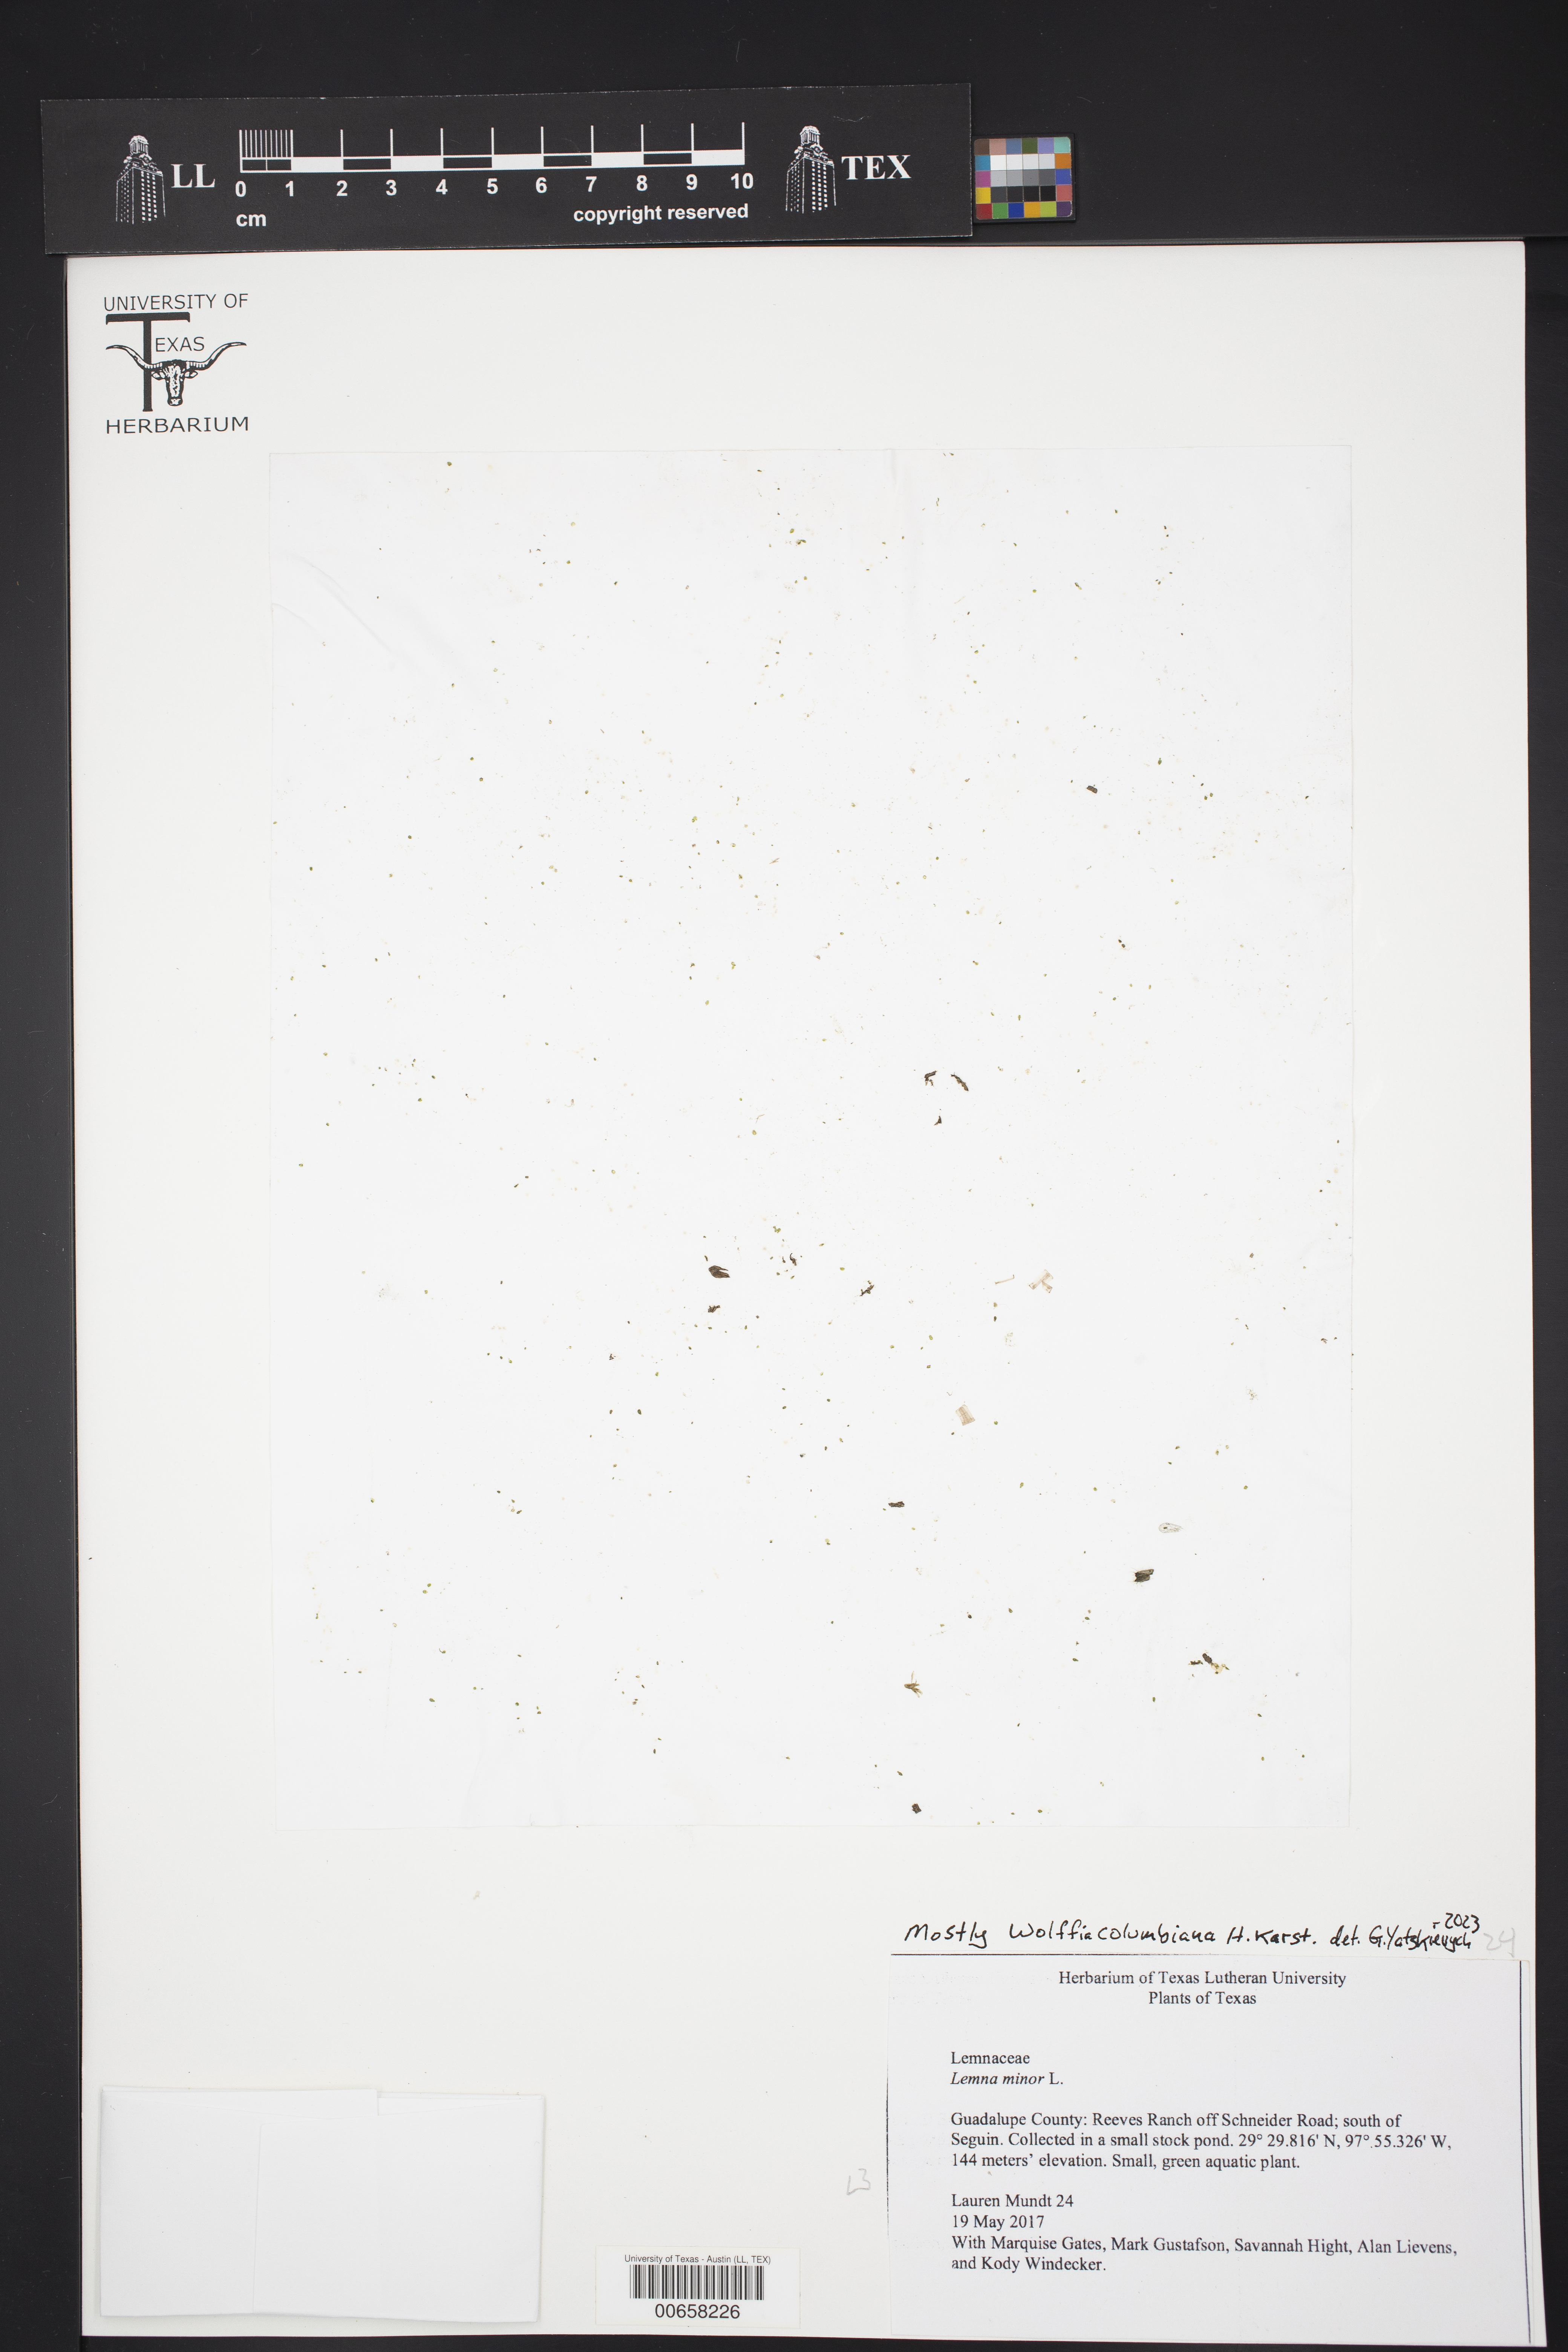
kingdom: Plantae
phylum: Tracheophyta
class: Liliopsida
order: Alismatales
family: Araceae
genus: Wolffia
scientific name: Wolffia columbiana
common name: Columbia watermeal
